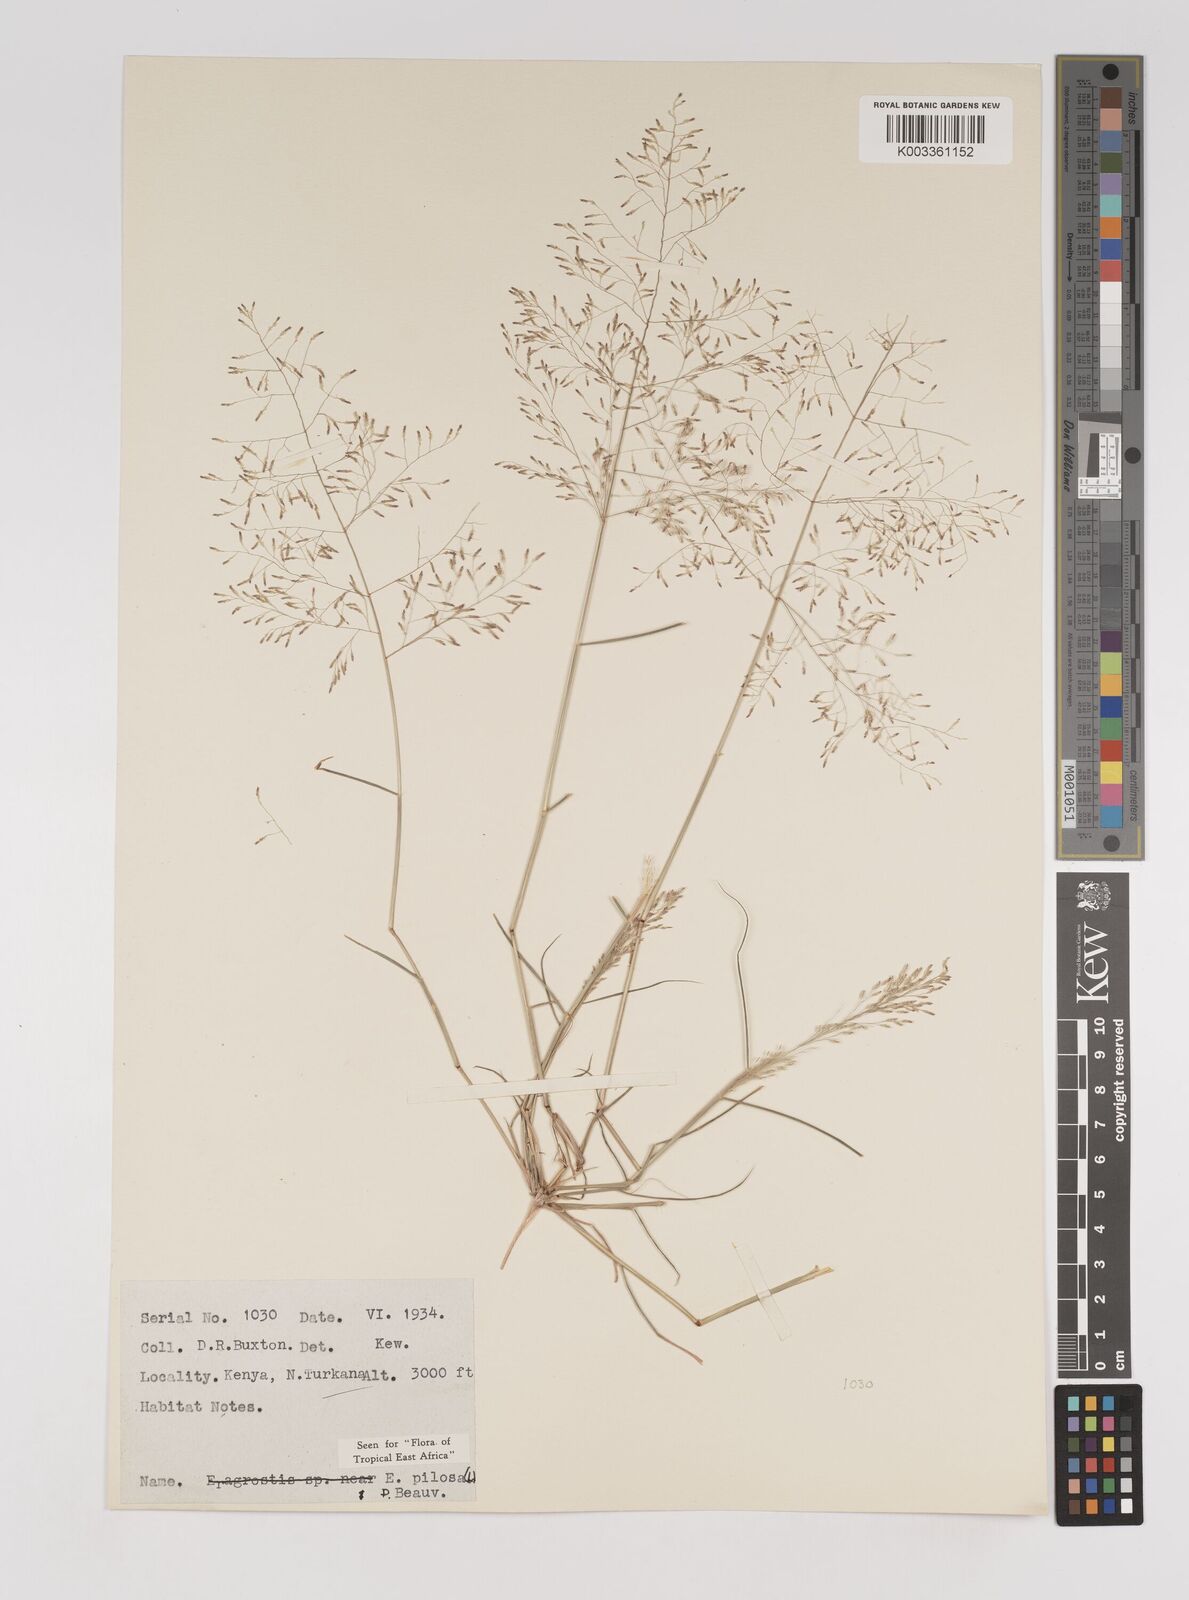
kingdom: Plantae
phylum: Tracheophyta
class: Liliopsida
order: Poales
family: Poaceae
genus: Eragrostis
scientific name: Eragrostis pilosa
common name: Indian lovegrass
